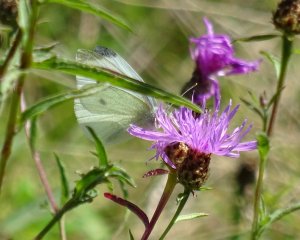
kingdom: Animalia
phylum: Arthropoda
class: Insecta
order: Lepidoptera
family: Pieridae
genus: Pieris
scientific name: Pieris rapae
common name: Cabbage White
